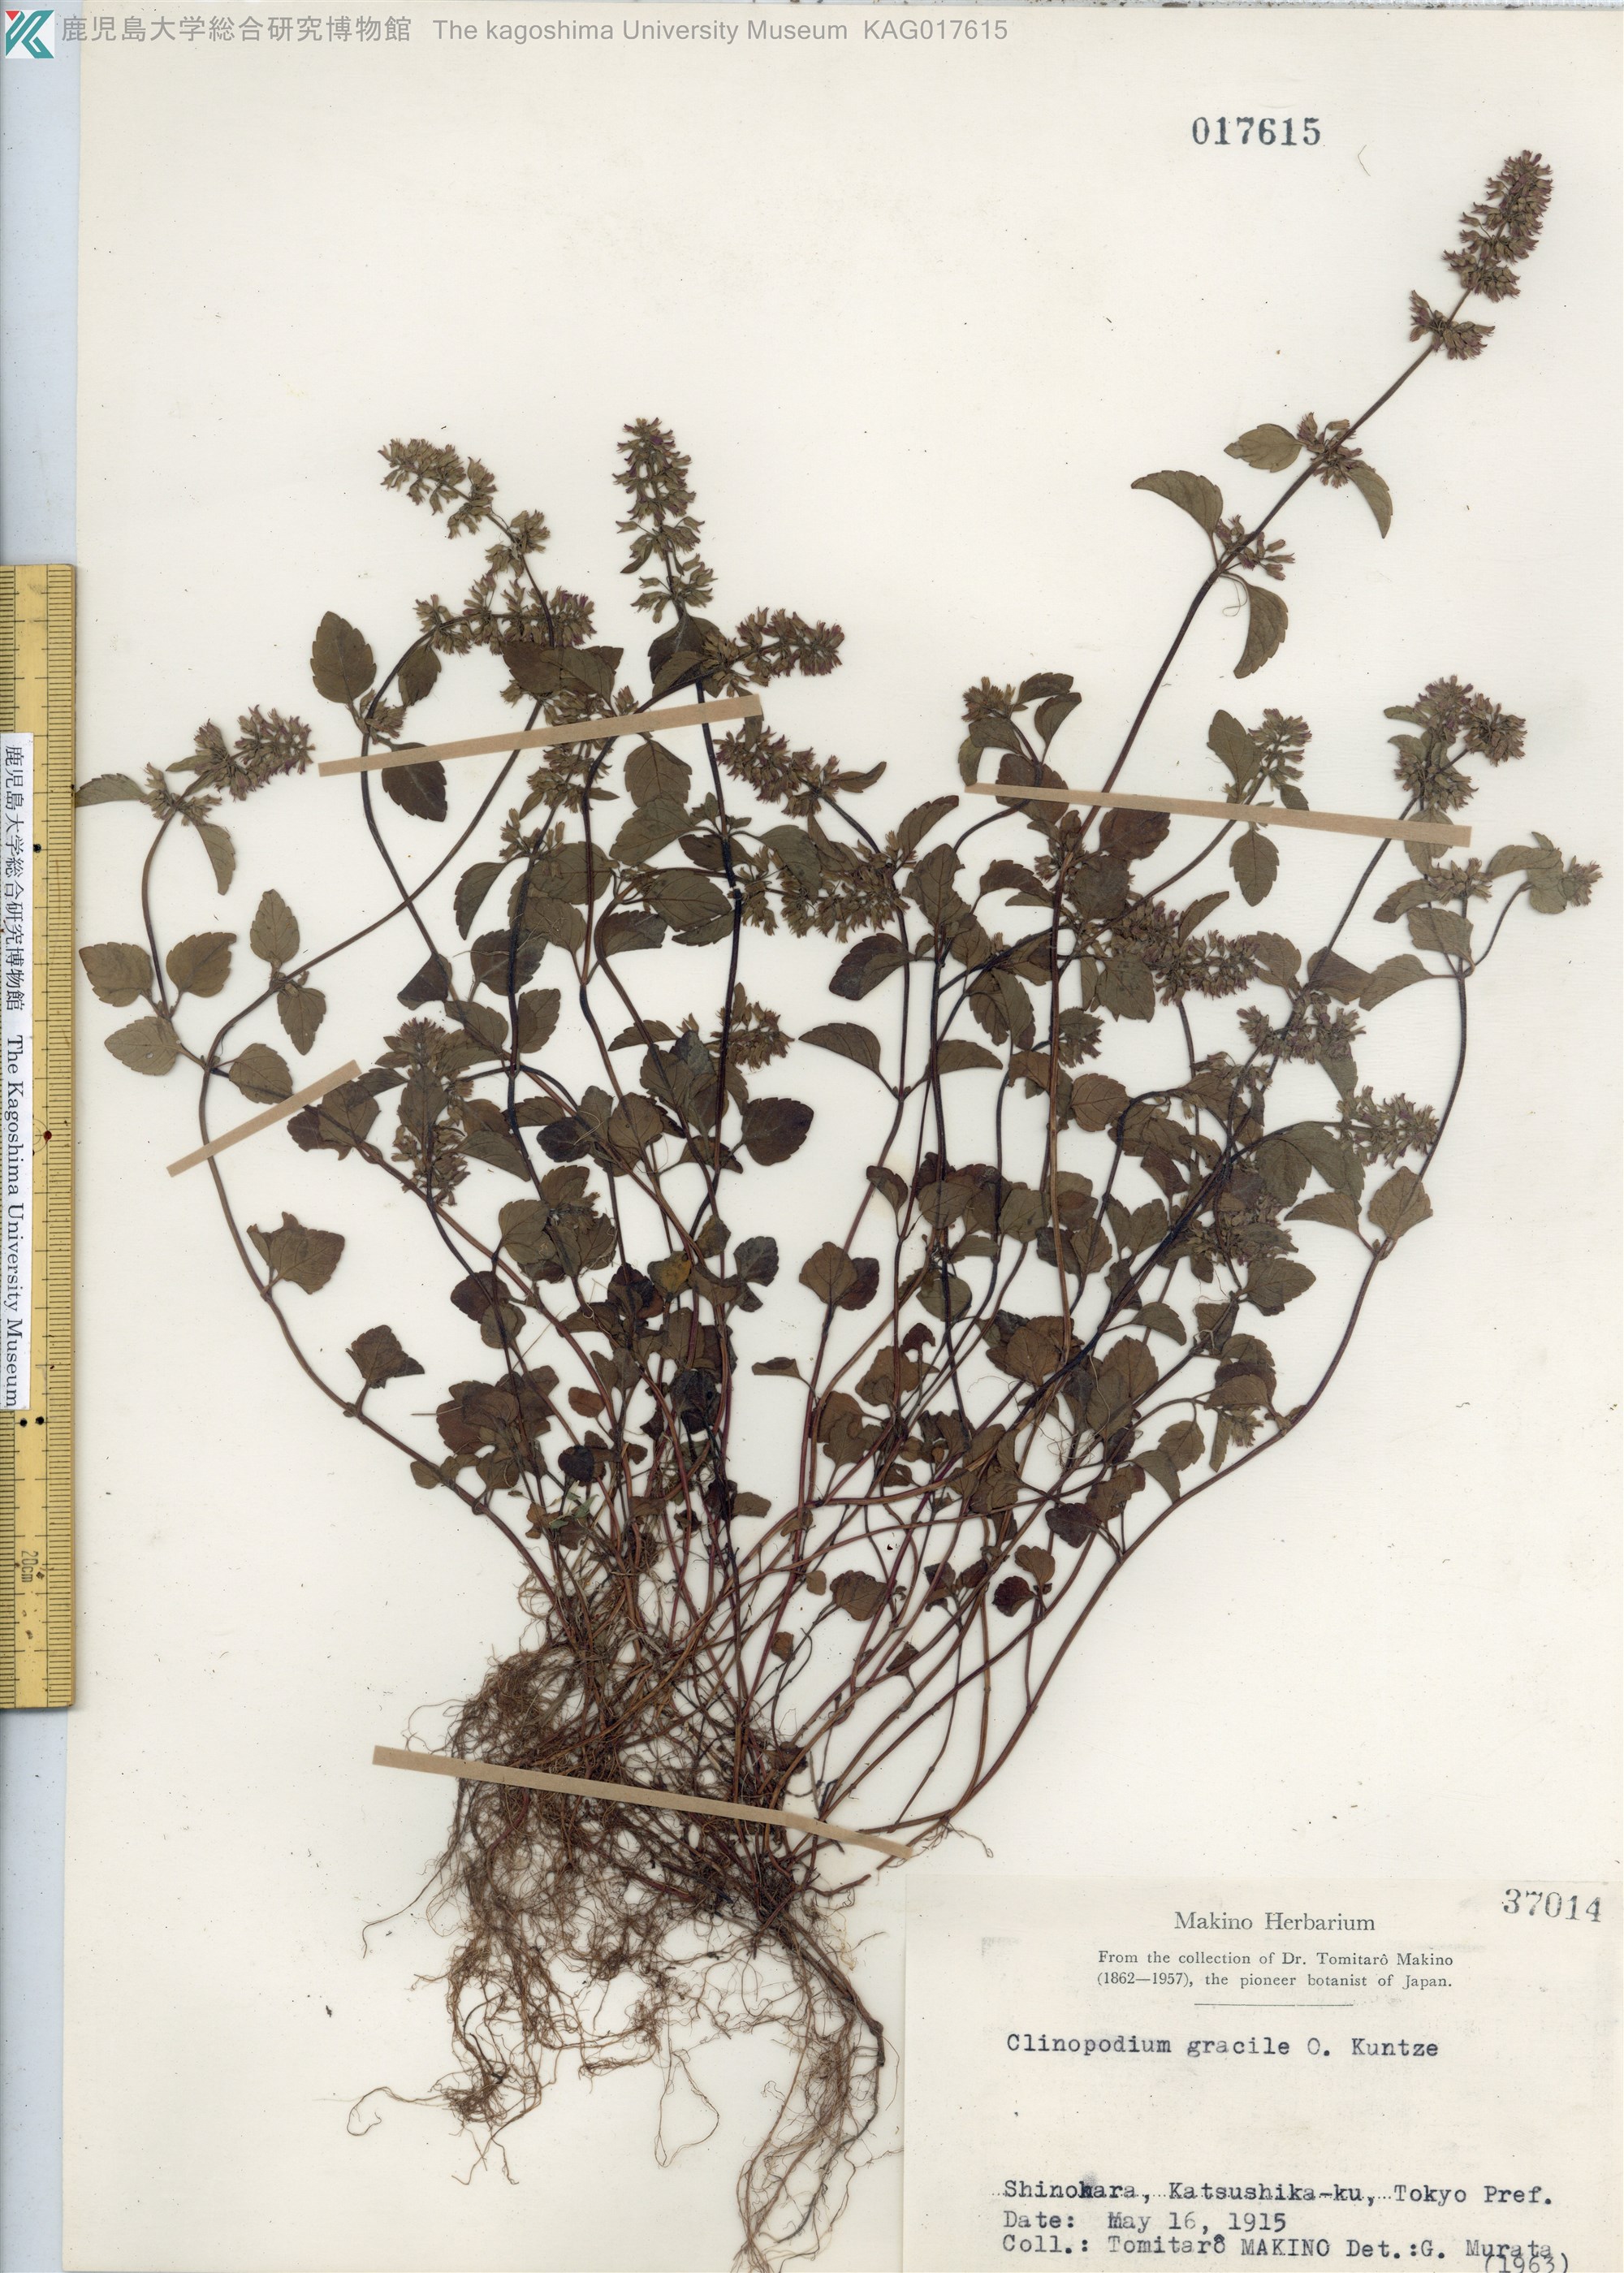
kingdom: Plantae
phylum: Tracheophyta
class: Magnoliopsida
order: Lamiales
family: Lamiaceae
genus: Clinopodium
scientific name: Clinopodium gracile
